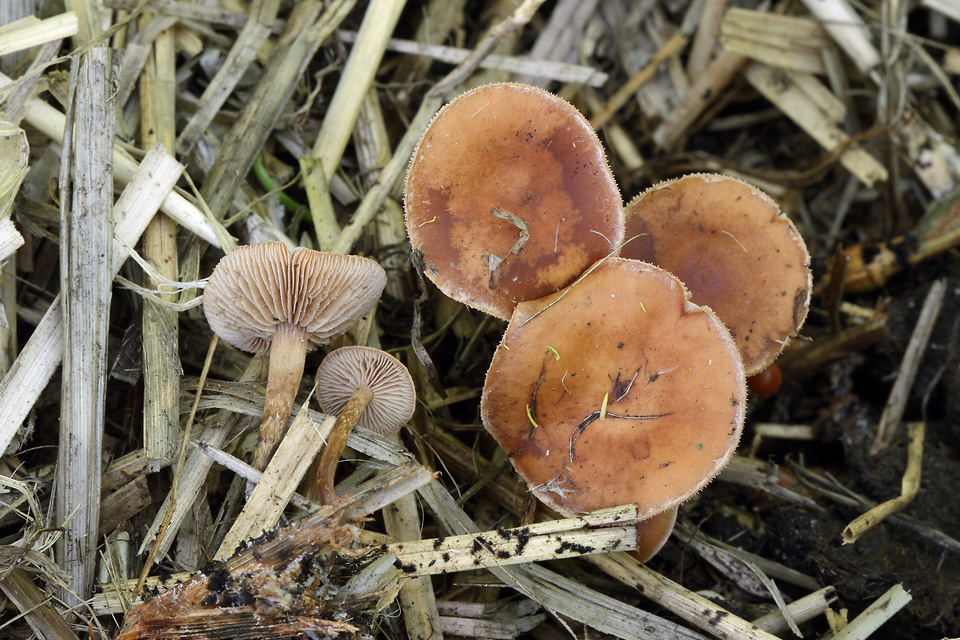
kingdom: Fungi
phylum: Basidiomycota
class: Agaricomycetes
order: Agaricales
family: Strophariaceae
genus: Deconica
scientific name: Deconica crobula
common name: træflis-stråhat
